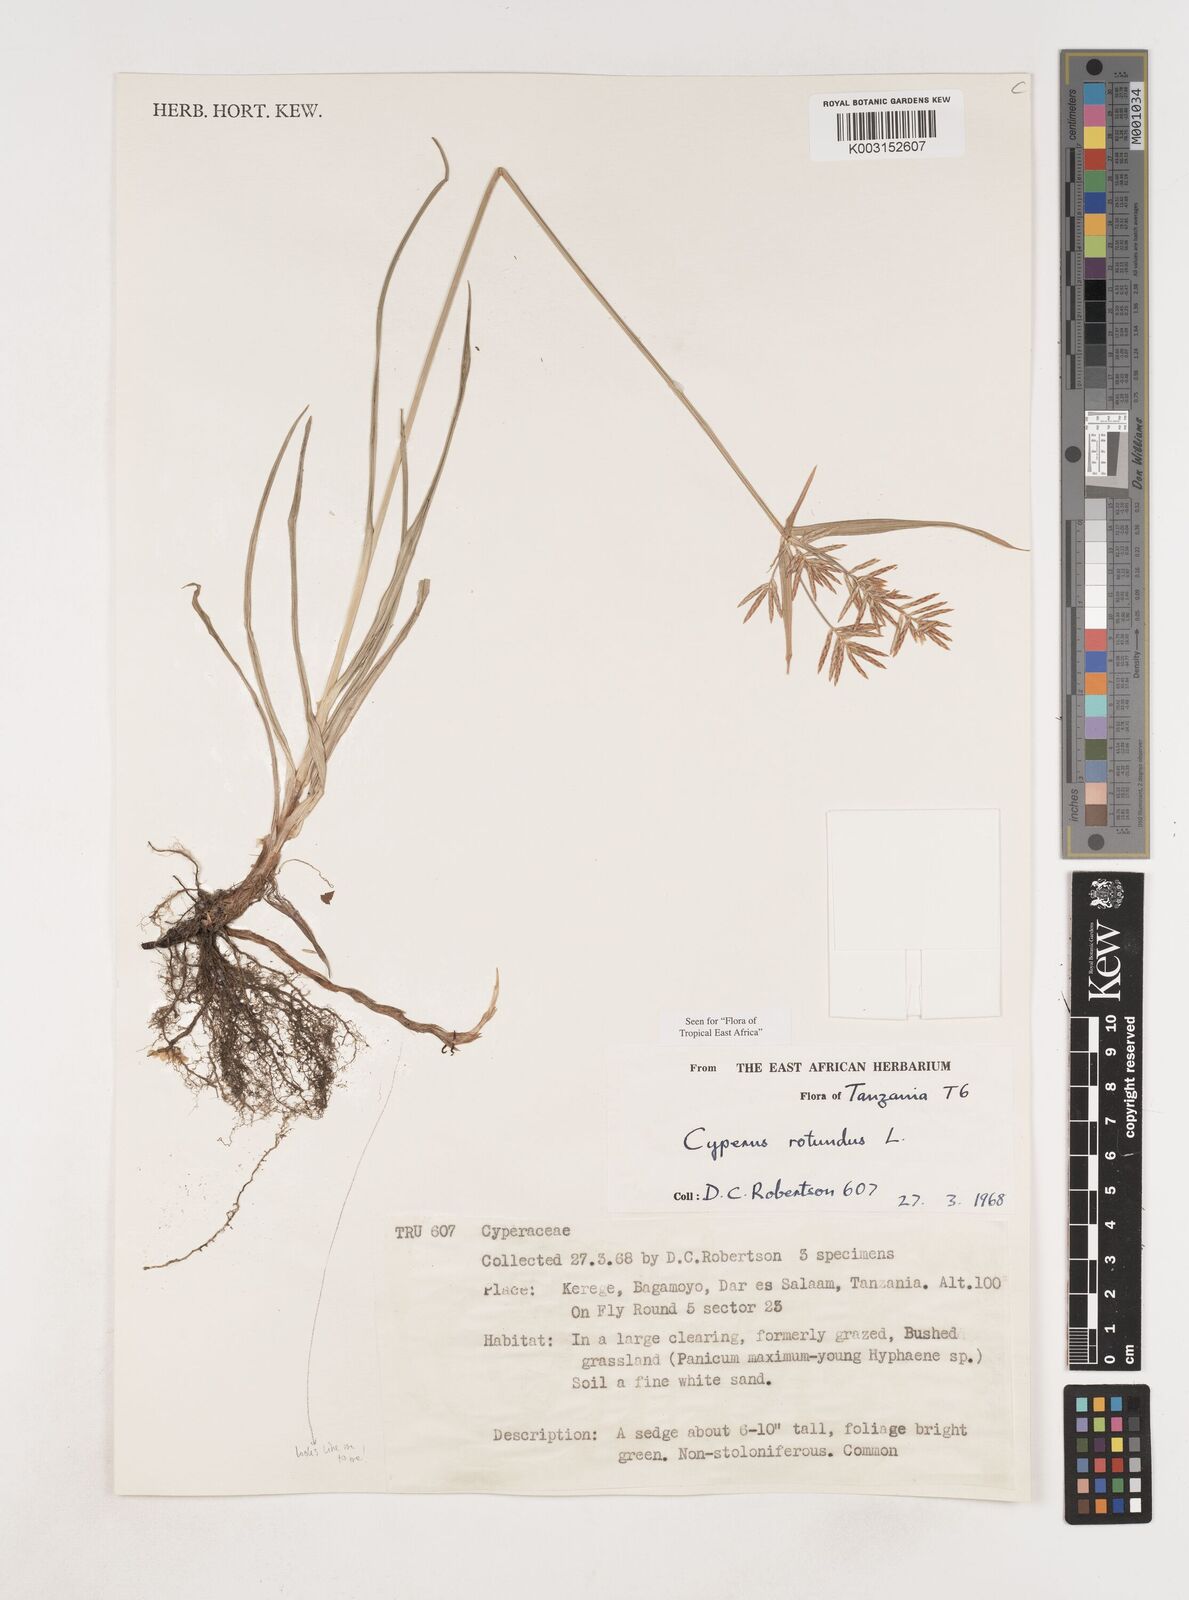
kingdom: Plantae
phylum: Tracheophyta
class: Liliopsida
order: Poales
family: Cyperaceae
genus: Cyperus
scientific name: Cyperus rotundus
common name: Nutgrass
